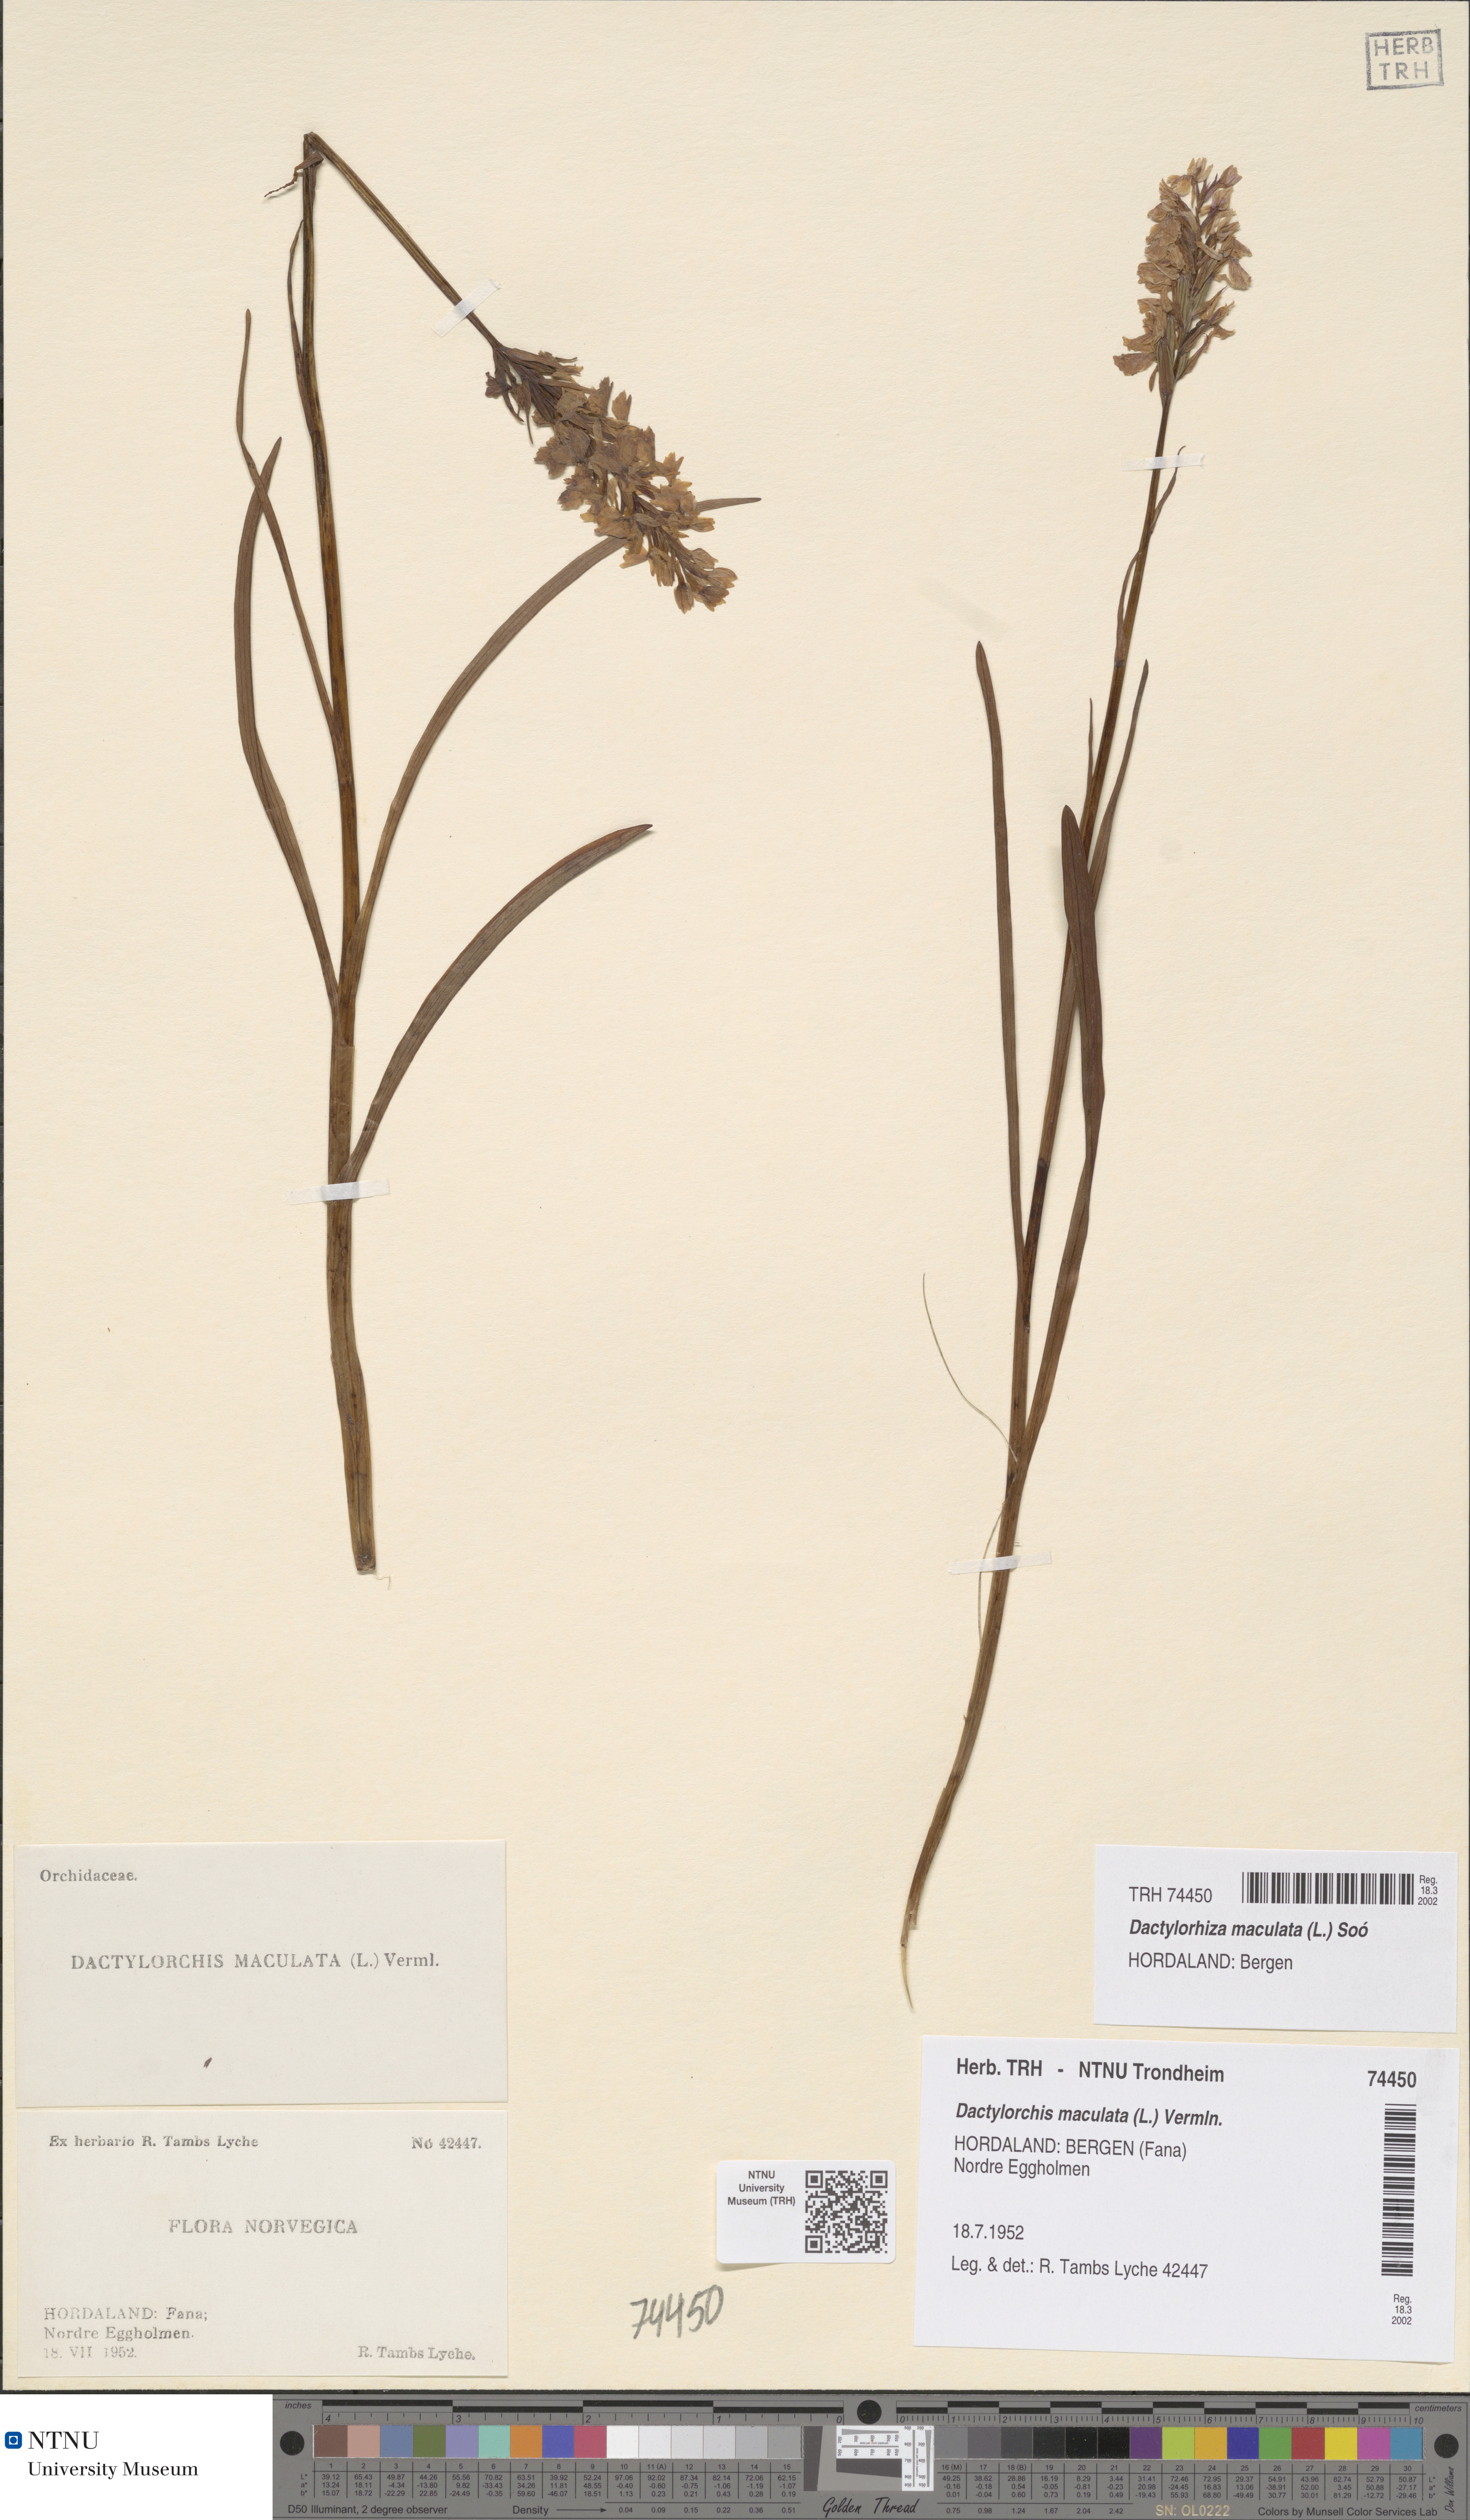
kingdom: Plantae
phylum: Tracheophyta
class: Liliopsida
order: Asparagales
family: Orchidaceae
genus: Dactylorhiza
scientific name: Dactylorhiza maculata
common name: Heath spotted-orchid
